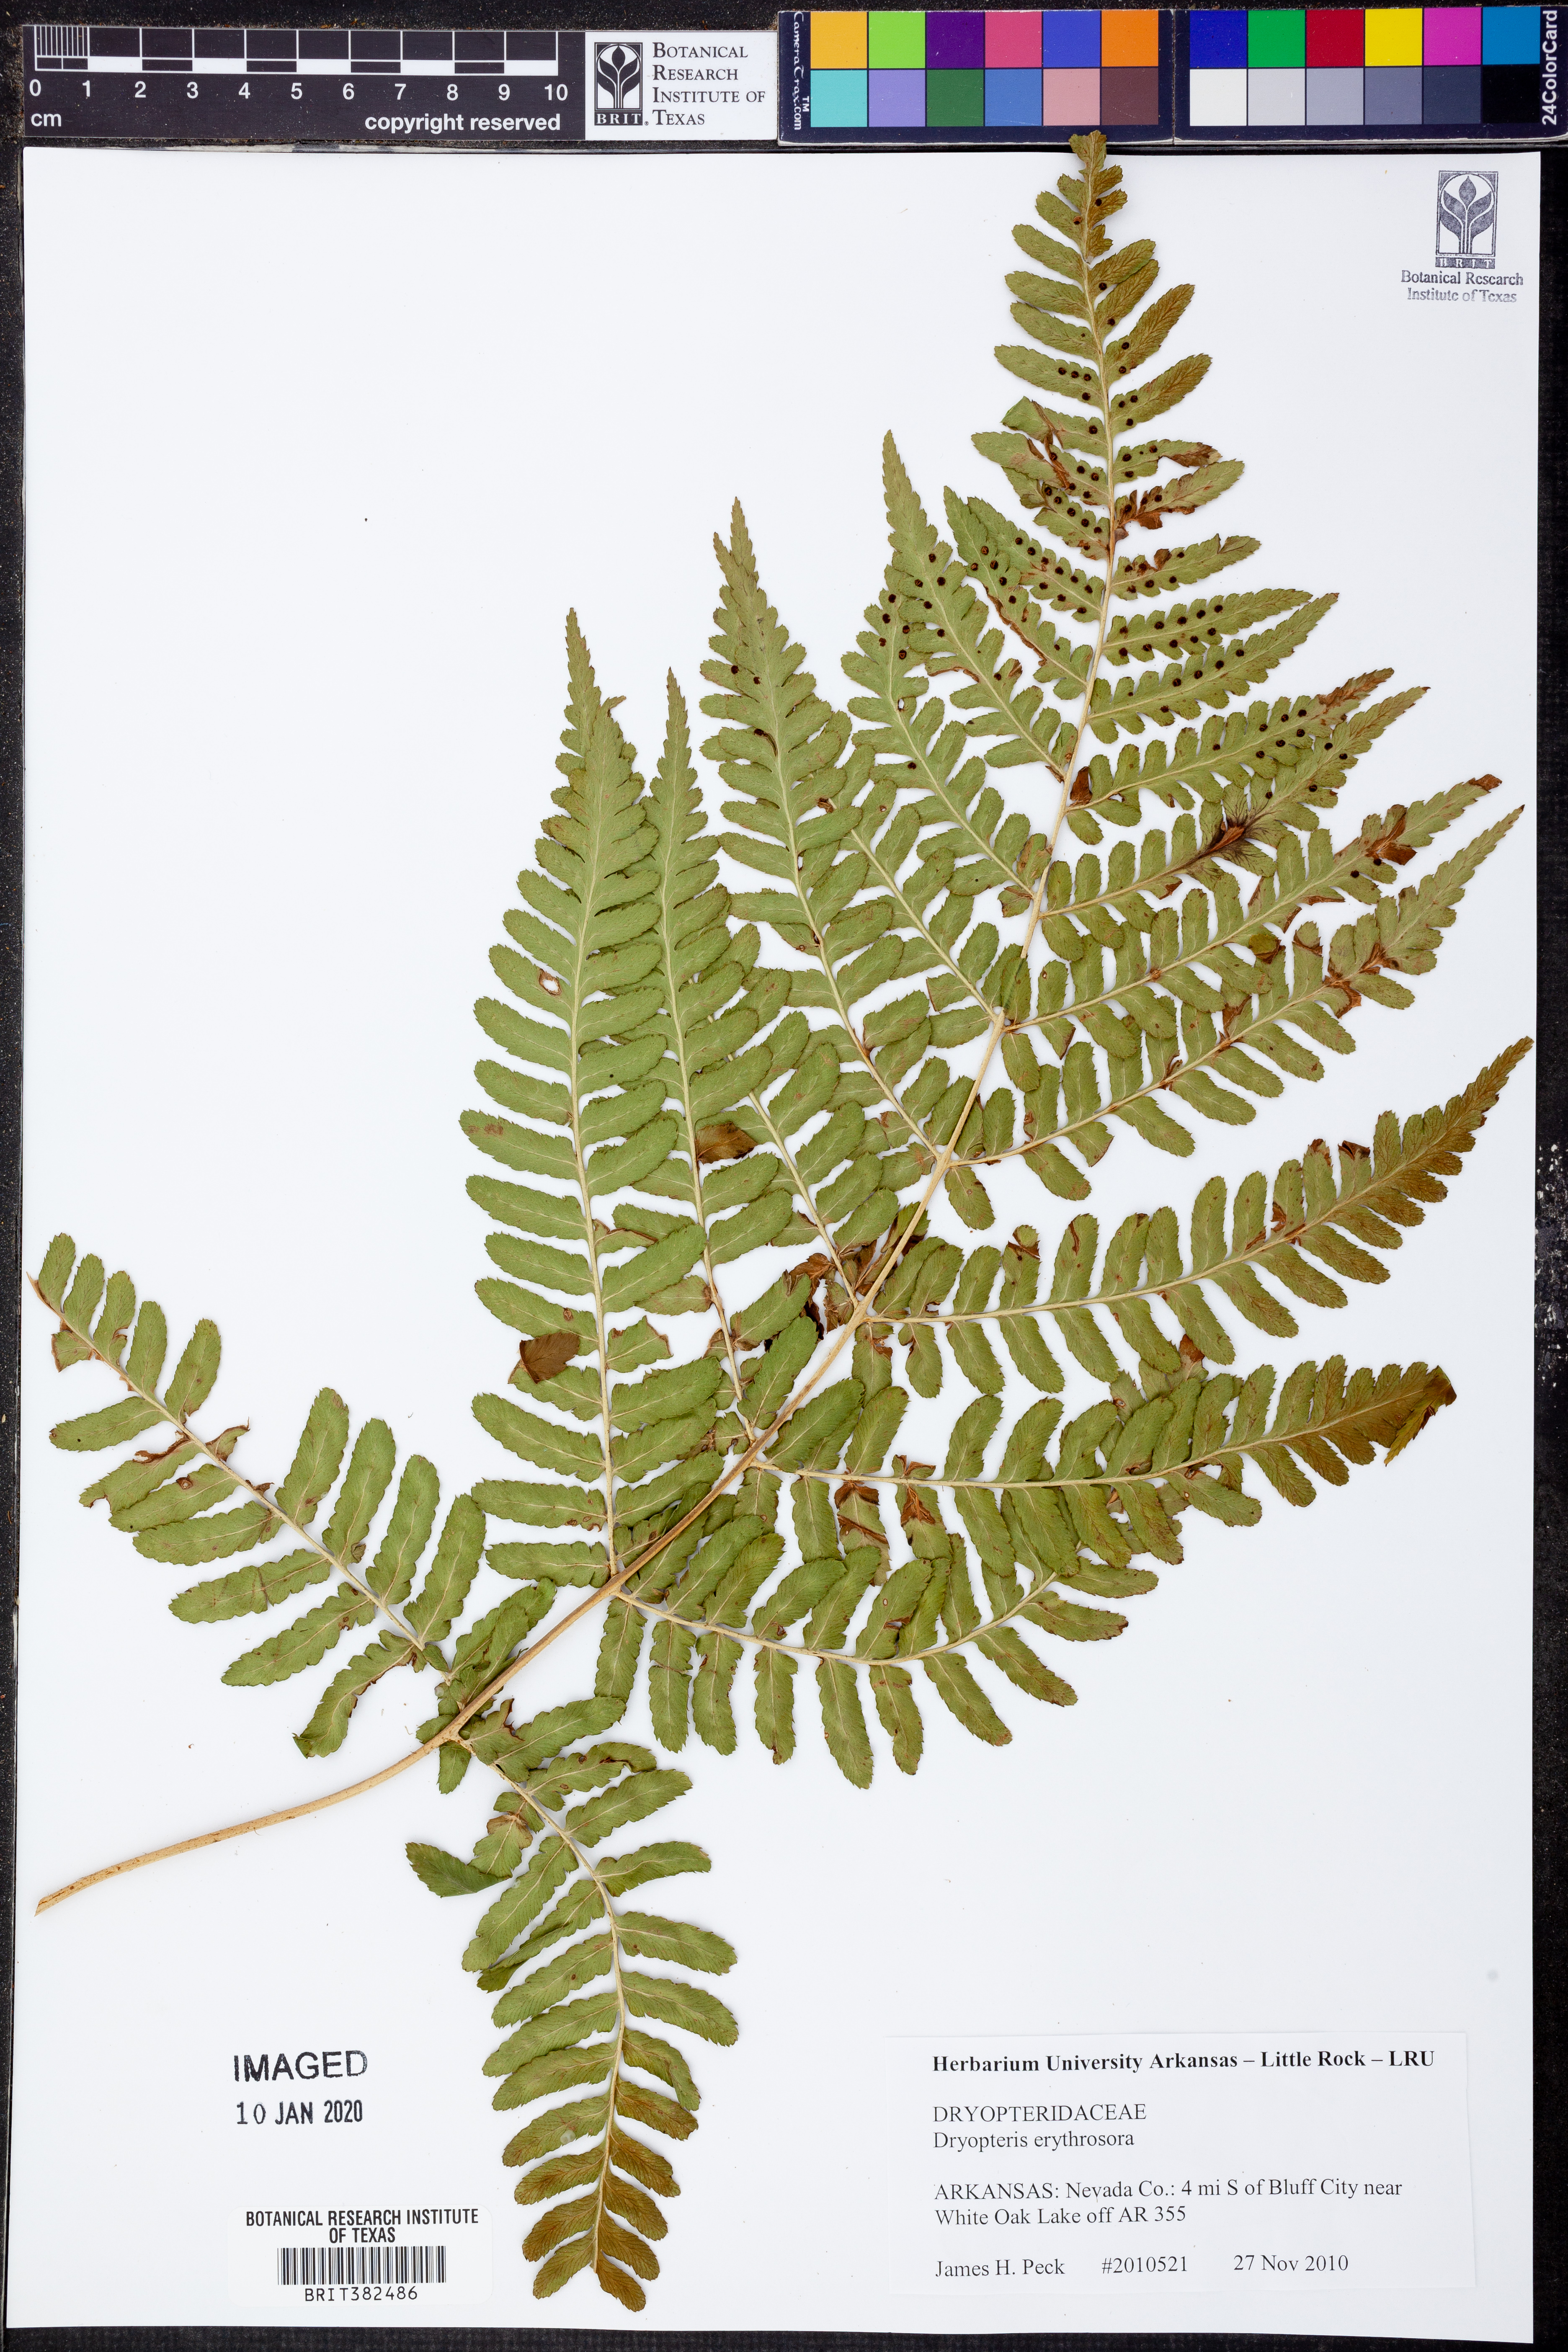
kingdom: Plantae
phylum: Tracheophyta
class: Polypodiopsida
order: Polypodiales
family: Dryopteridaceae
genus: Dryopteris
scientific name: Dryopteris erythrosora
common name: Autumn fern
